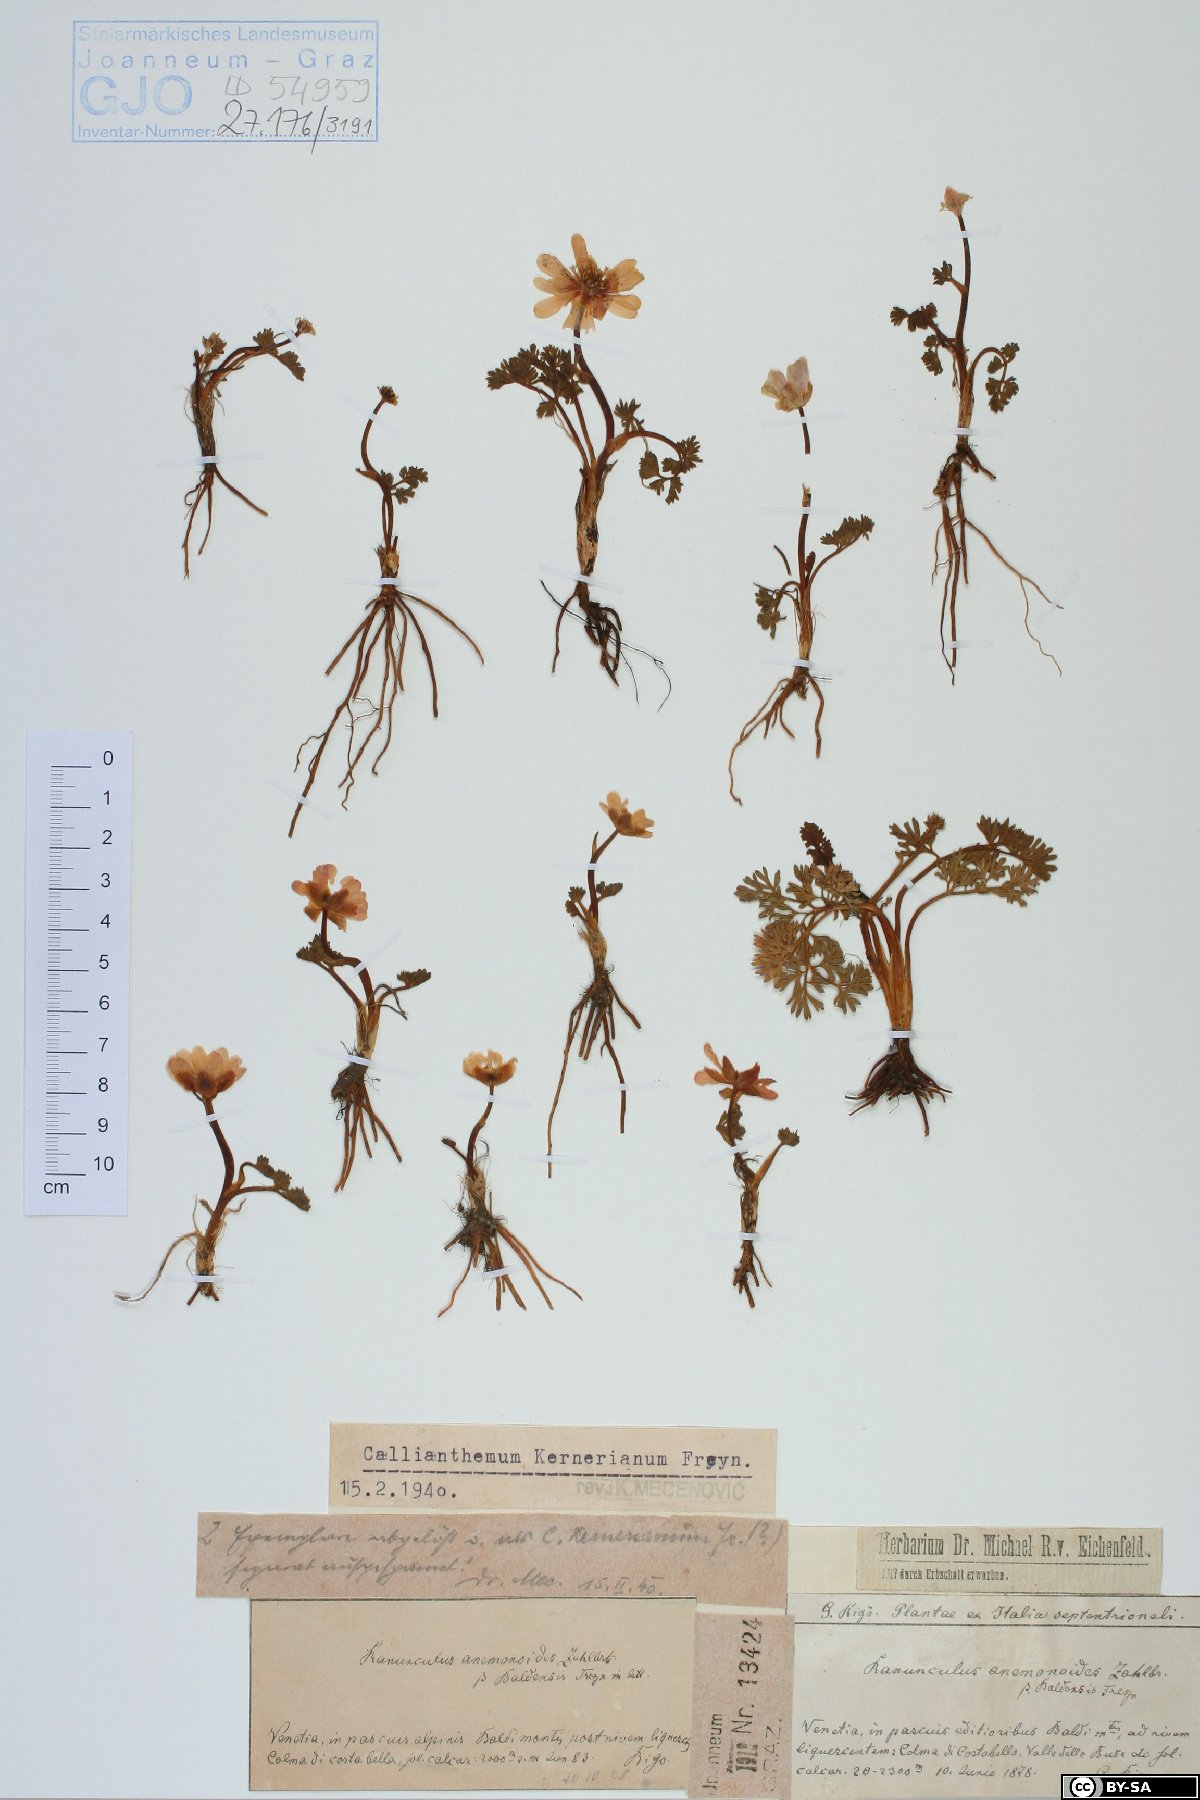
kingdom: Plantae
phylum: Tracheophyta
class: Magnoliopsida
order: Ranunculales
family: Ranunculaceae
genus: Callianthemum
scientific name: Callianthemum kernerianum
